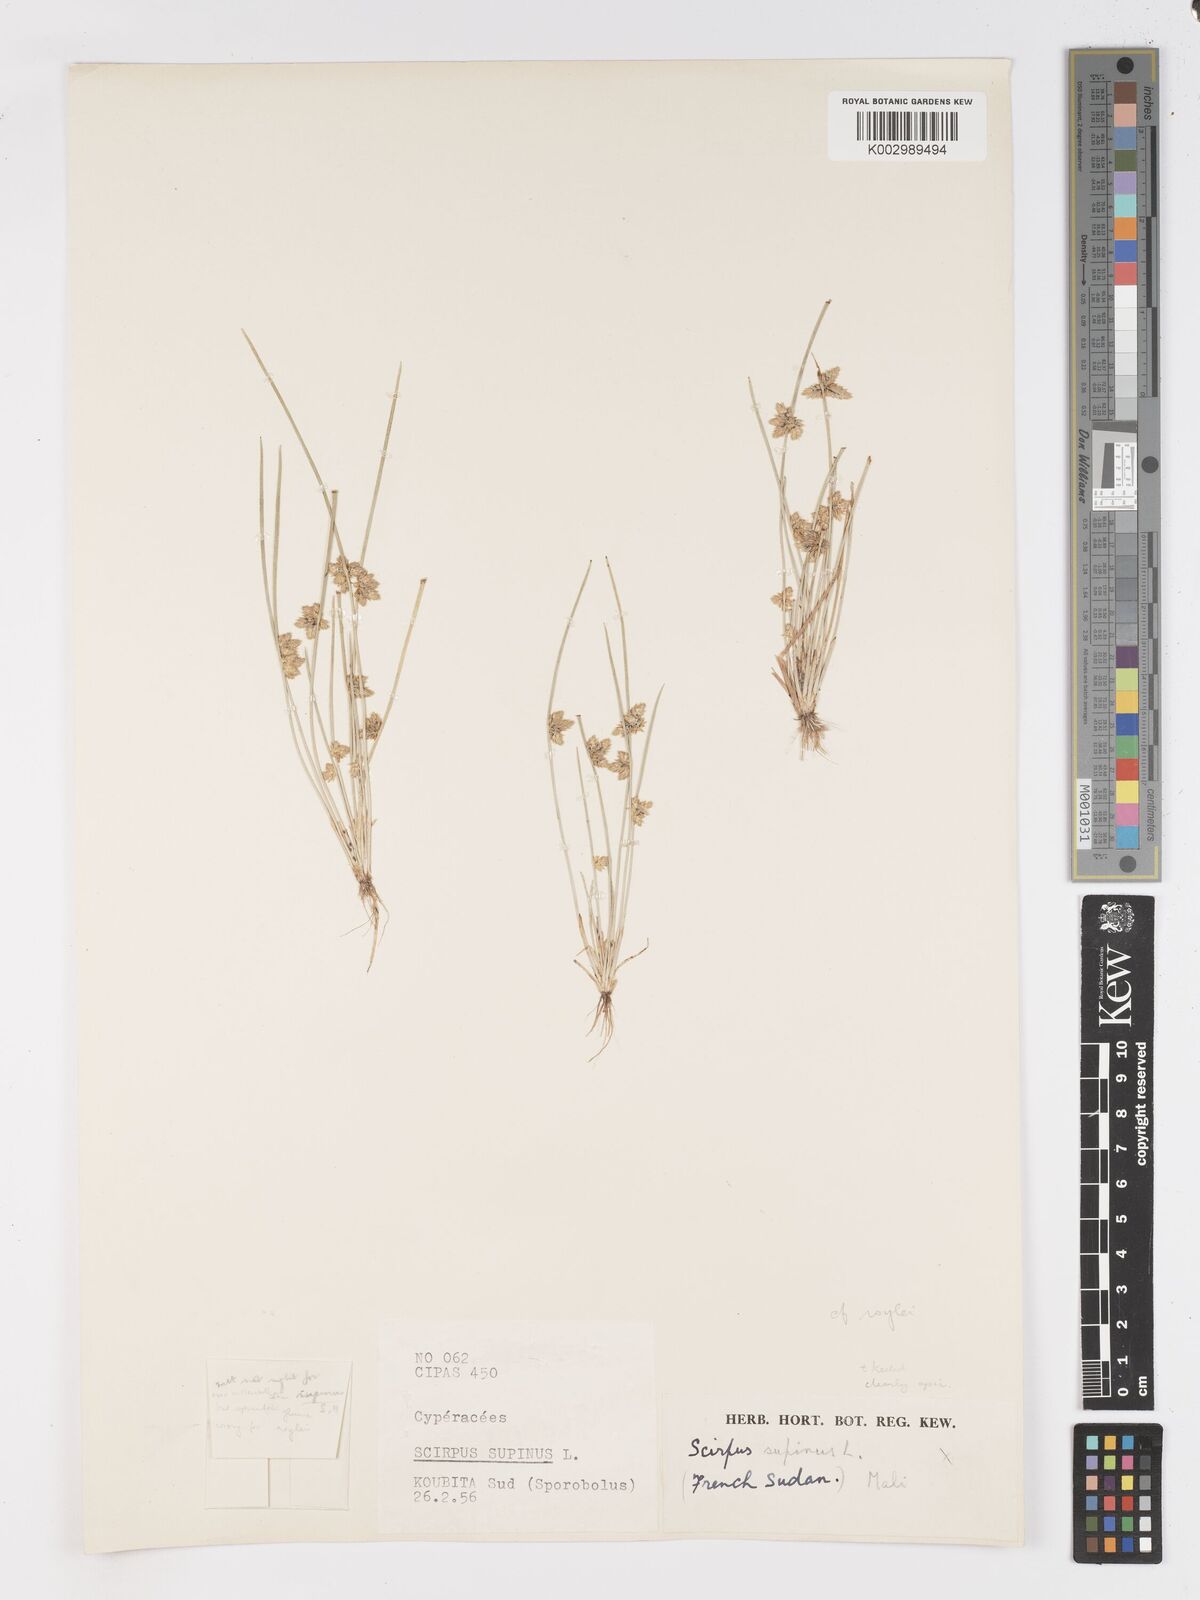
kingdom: Plantae
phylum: Tracheophyta
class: Liliopsida
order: Poales
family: Cyperaceae
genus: Schoenoplectiella
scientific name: Schoenoplectiella roylei
